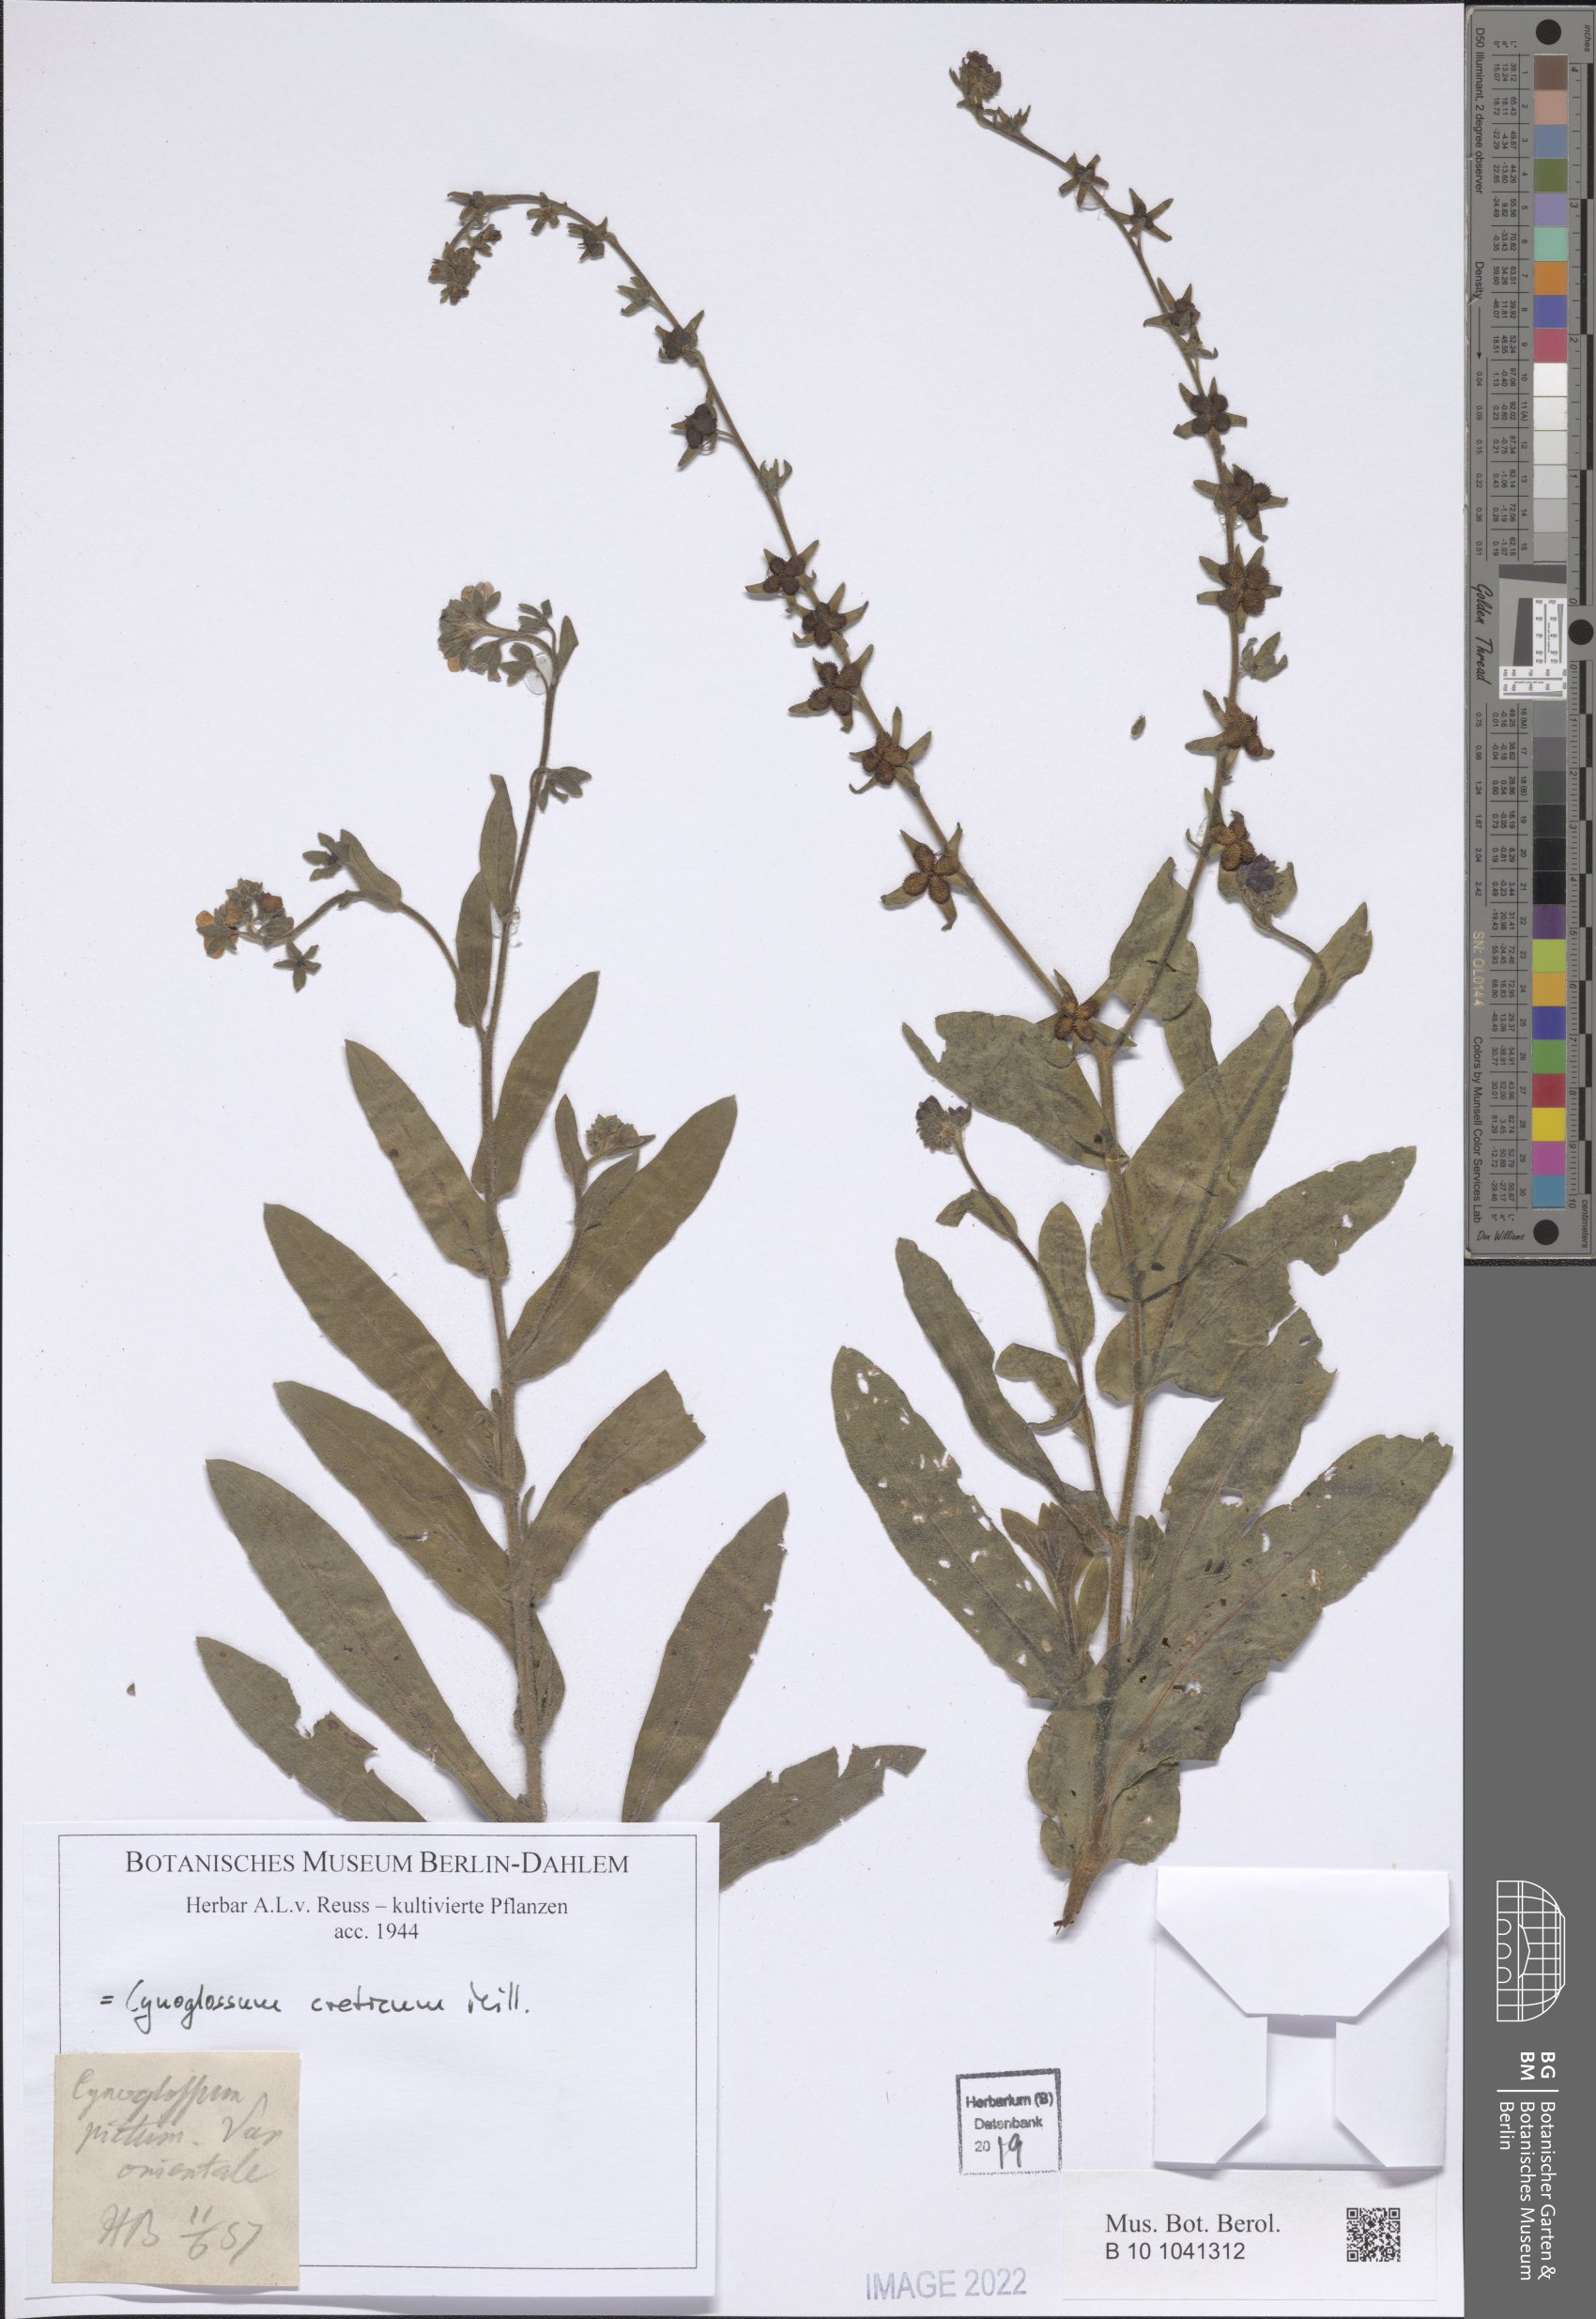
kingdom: Plantae
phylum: Tracheophyta
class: Magnoliopsida
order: Boraginales
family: Boraginaceae
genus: Cynoglossum
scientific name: Cynoglossum creticum
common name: Blue hound's tongue
